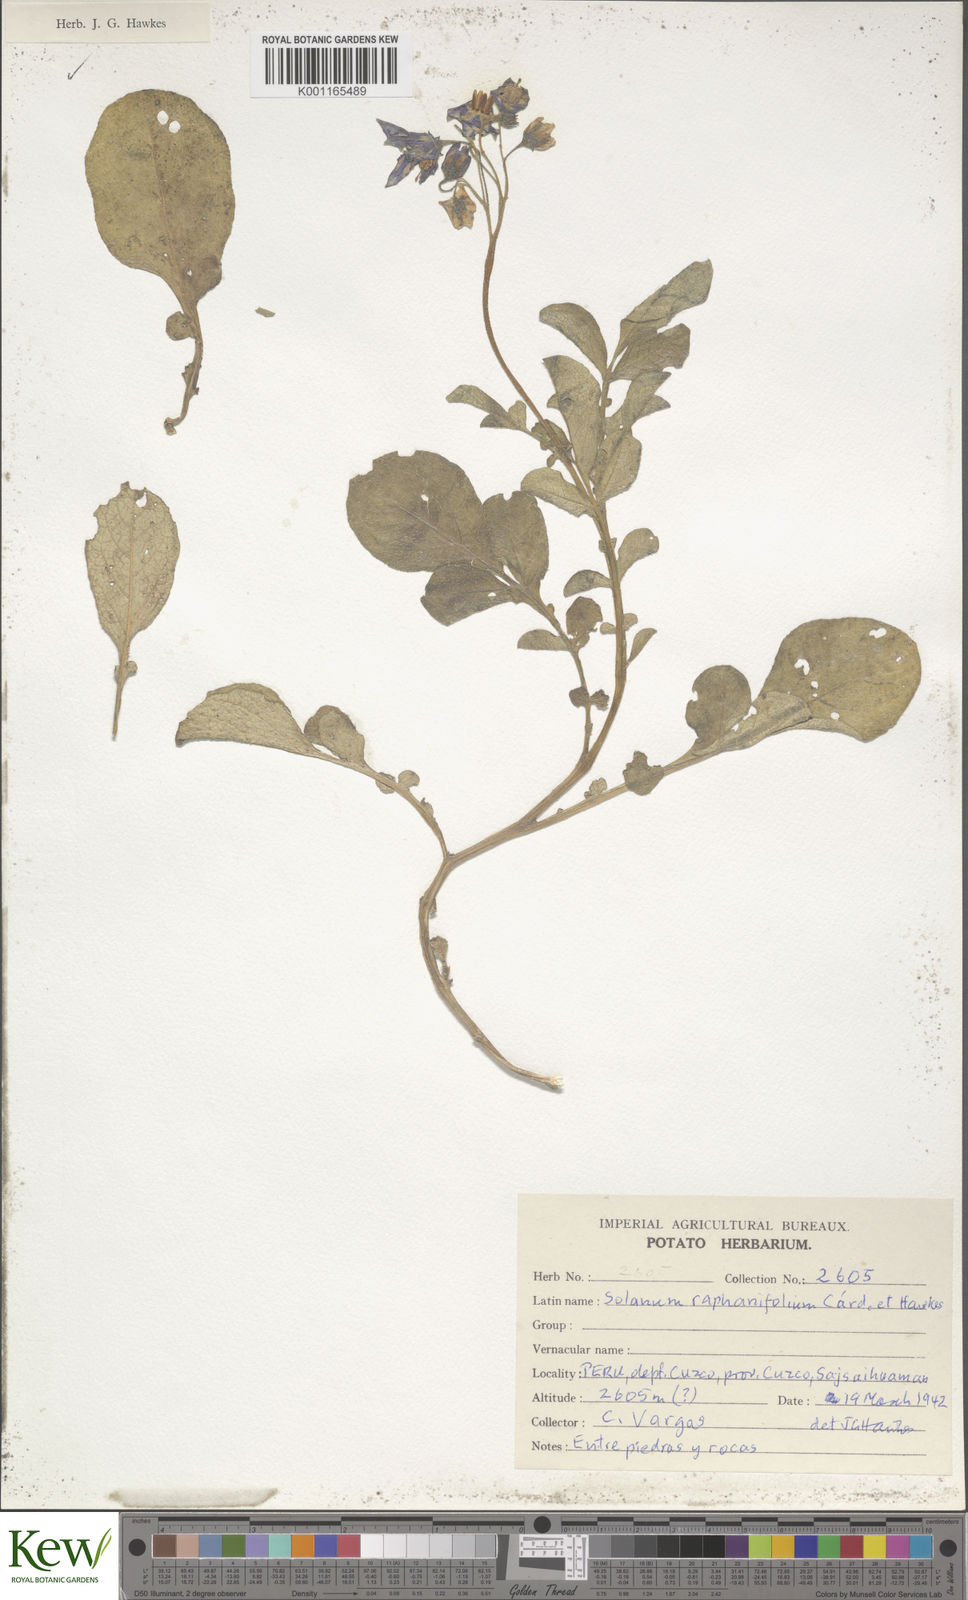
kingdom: Plantae
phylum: Tracheophyta
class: Magnoliopsida
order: Solanales
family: Solanaceae
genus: Solanum
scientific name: Solanum raphanifolium
